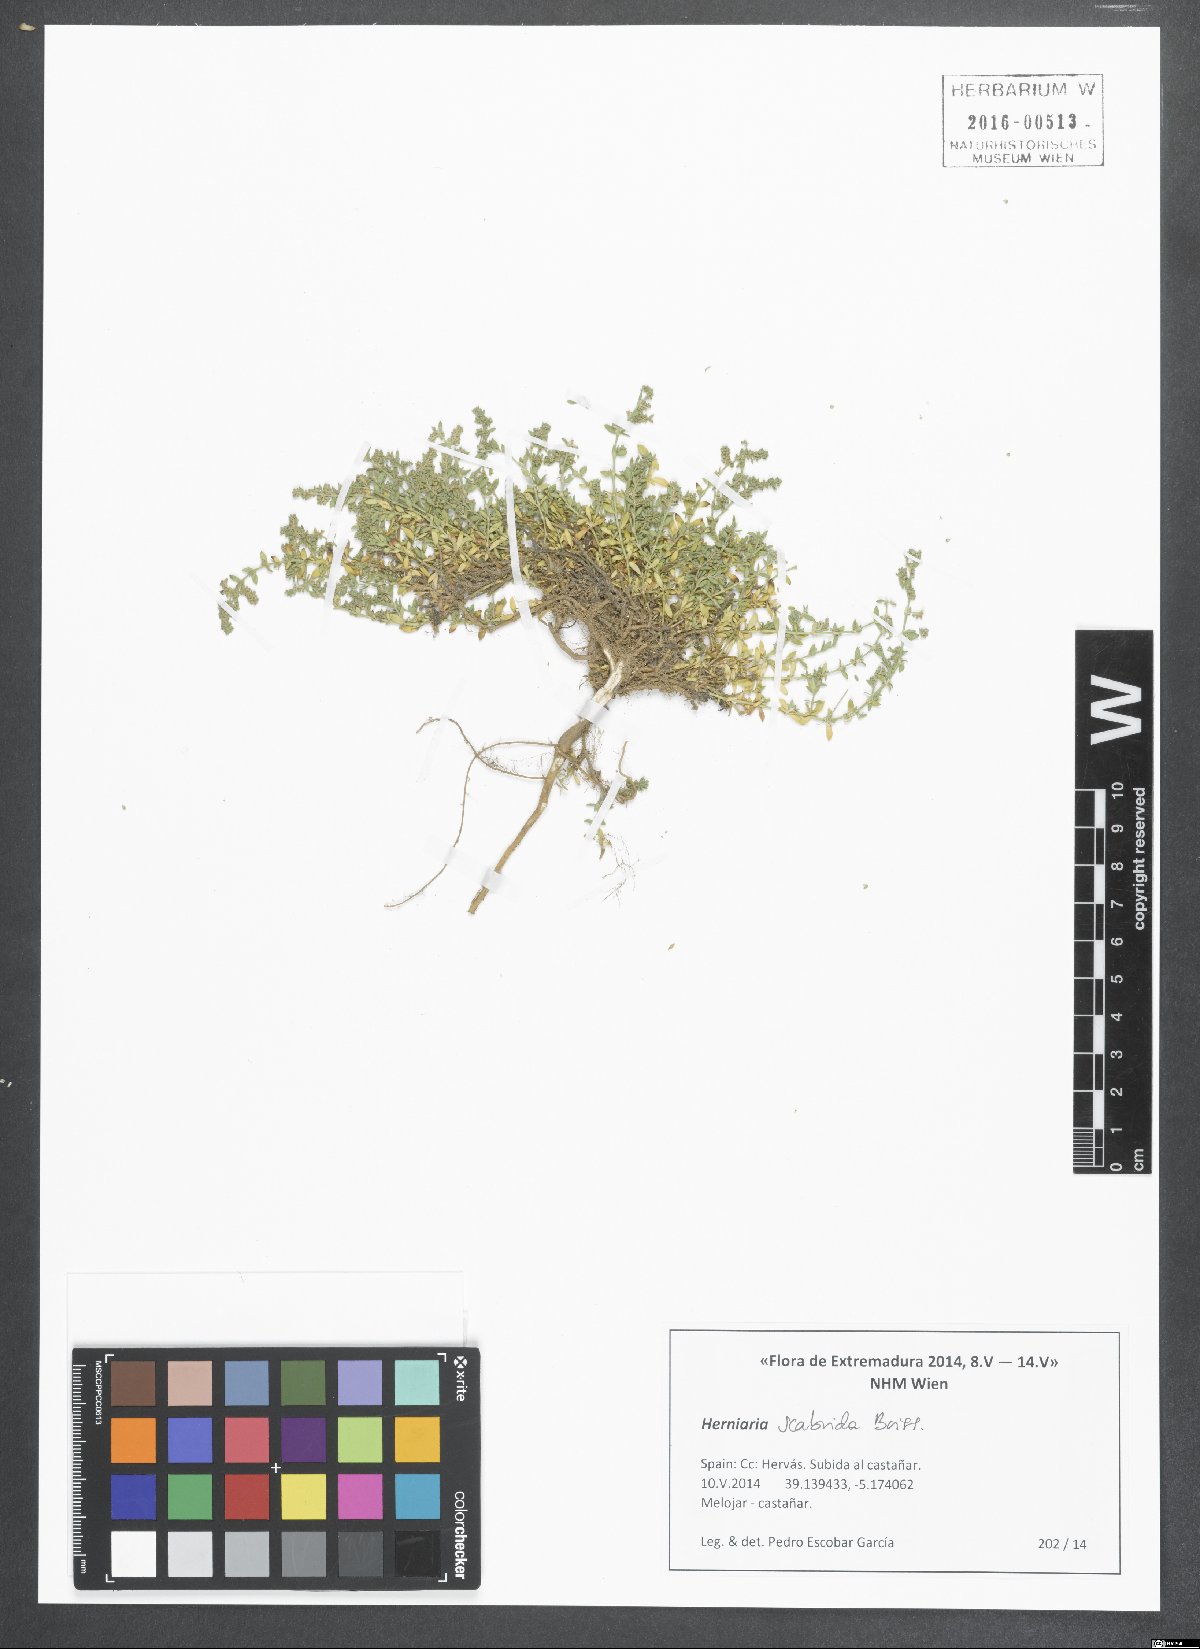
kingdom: Plantae
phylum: Tracheophyta
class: Magnoliopsida
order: Caryophyllales
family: Caryophyllaceae
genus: Herniaria
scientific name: Herniaria scabrida
